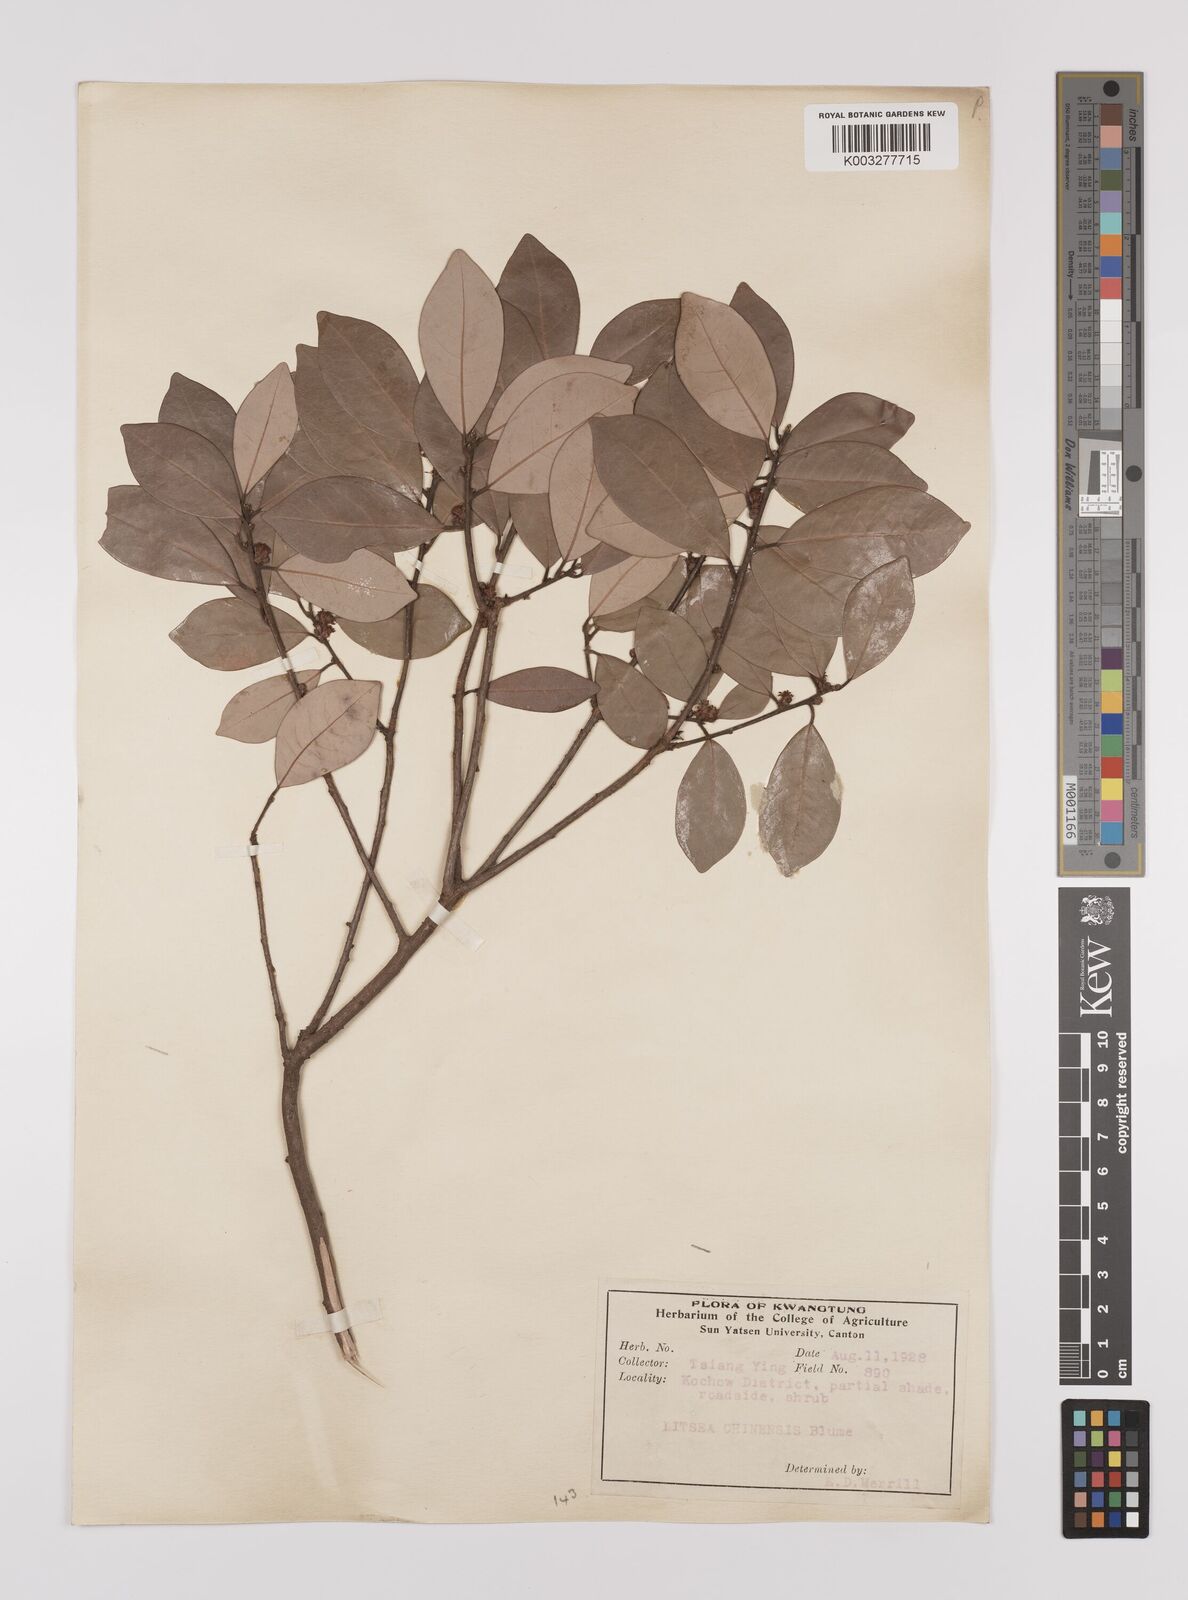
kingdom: Plantae
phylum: Tracheophyta
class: Magnoliopsida
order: Laurales
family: Lauraceae
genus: Litsea
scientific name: Litsea rotundifolia
